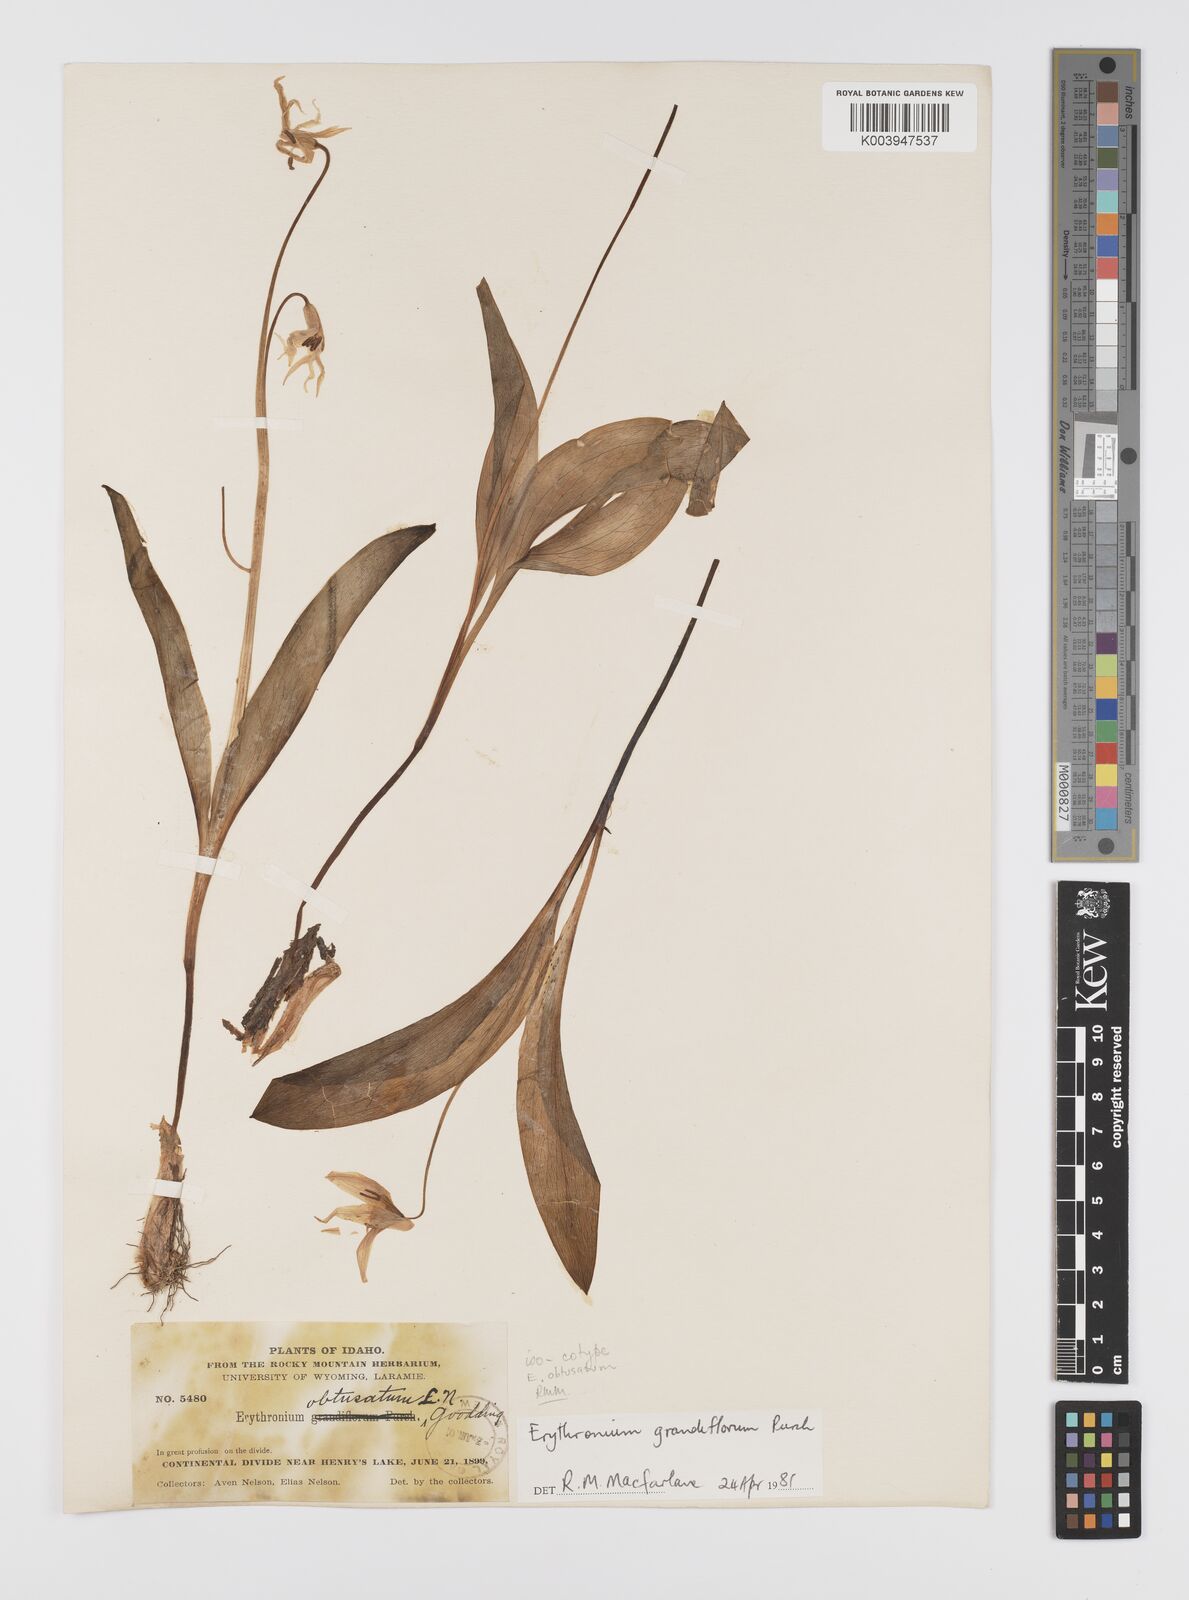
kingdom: Plantae
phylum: Tracheophyta
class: Liliopsida
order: Liliales
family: Liliaceae
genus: Erythronium
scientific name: Erythronium grandiflorum
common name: Avalanche-lily
